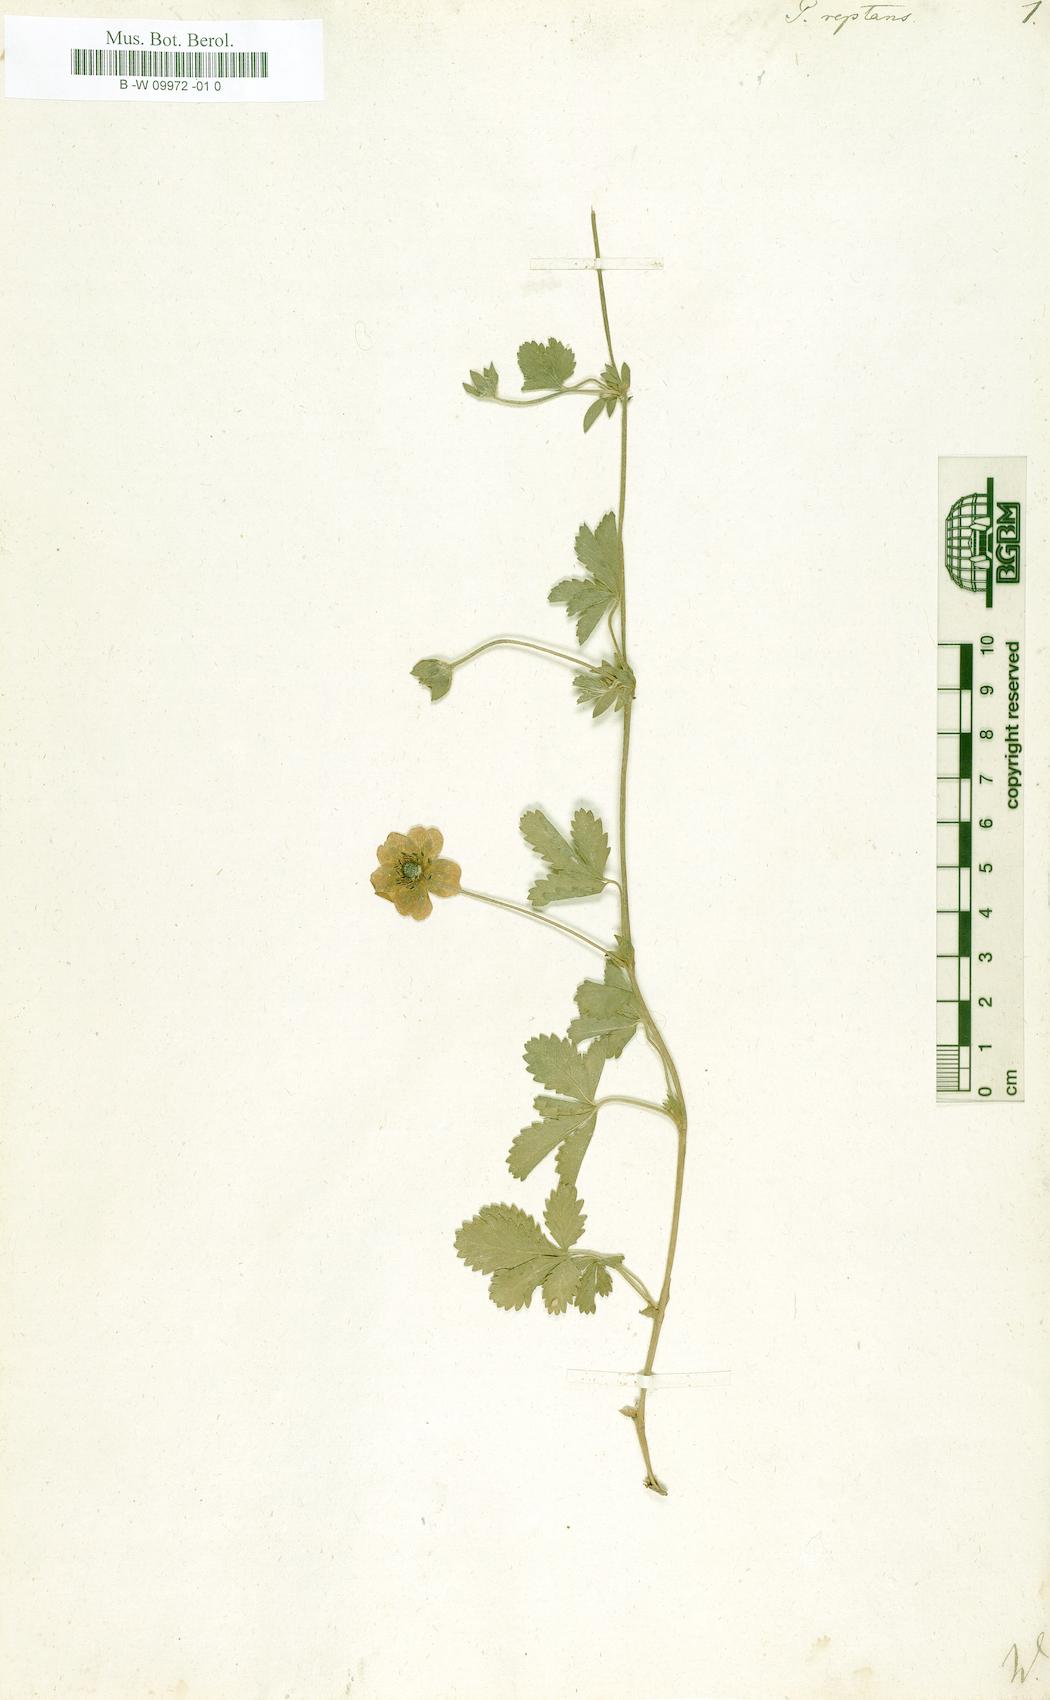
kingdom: Plantae
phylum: Tracheophyta
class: Magnoliopsida
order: Rosales
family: Rosaceae
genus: Potentilla
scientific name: Potentilla reptans
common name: Creeping cinquefoil
